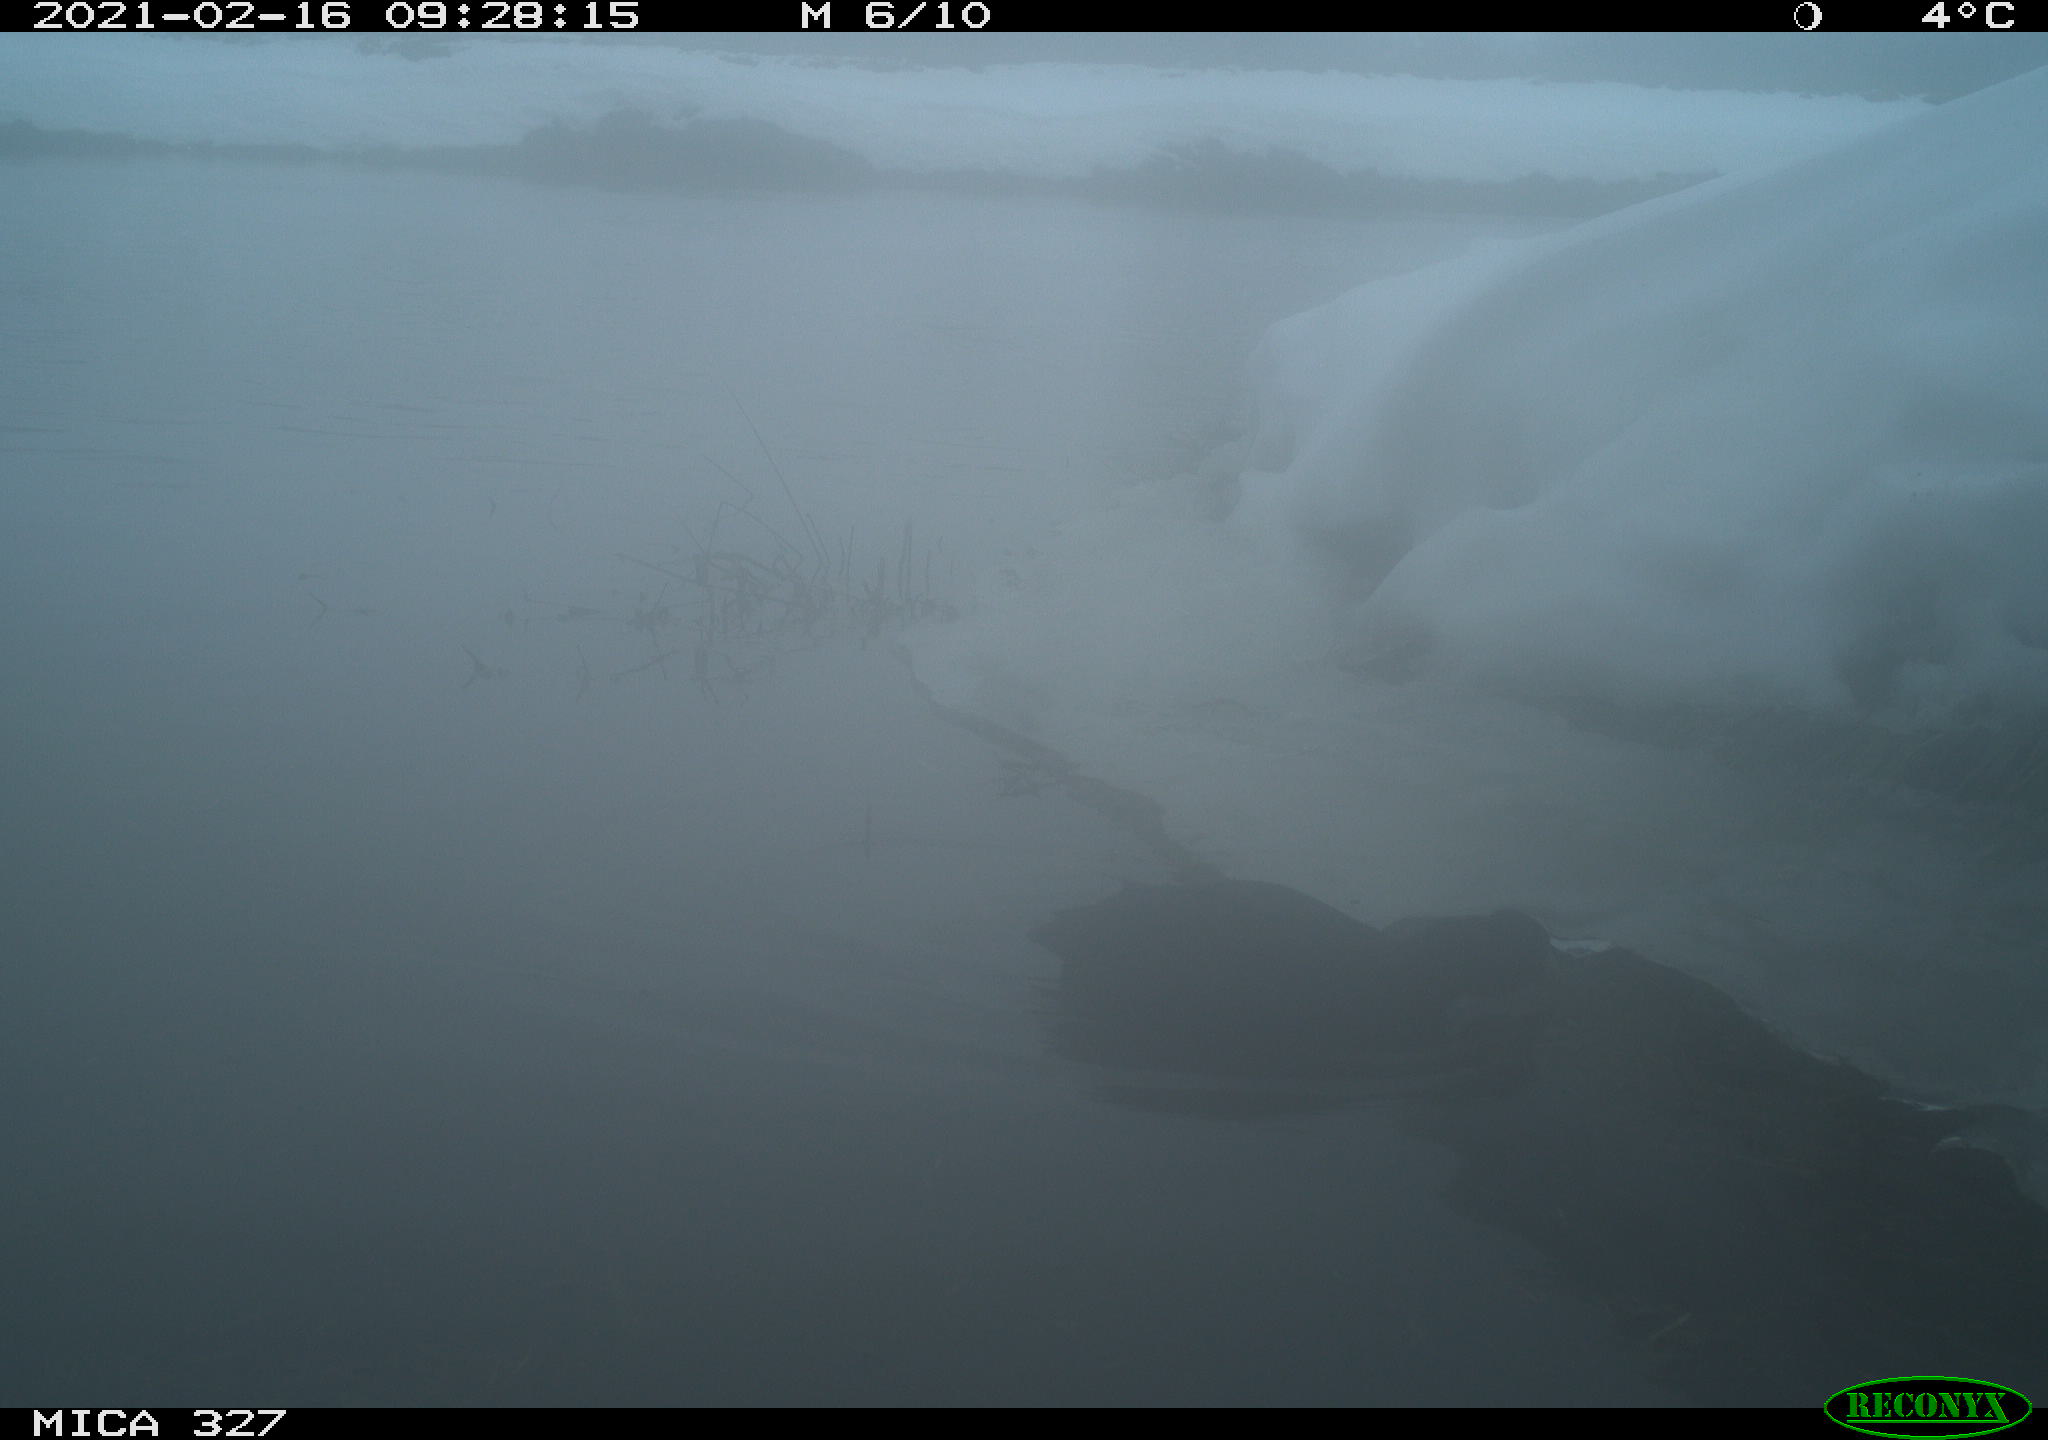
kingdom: Animalia
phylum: Chordata
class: Aves
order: Gruiformes
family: Rallidae
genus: Fulica
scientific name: Fulica atra
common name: Eurasian coot
